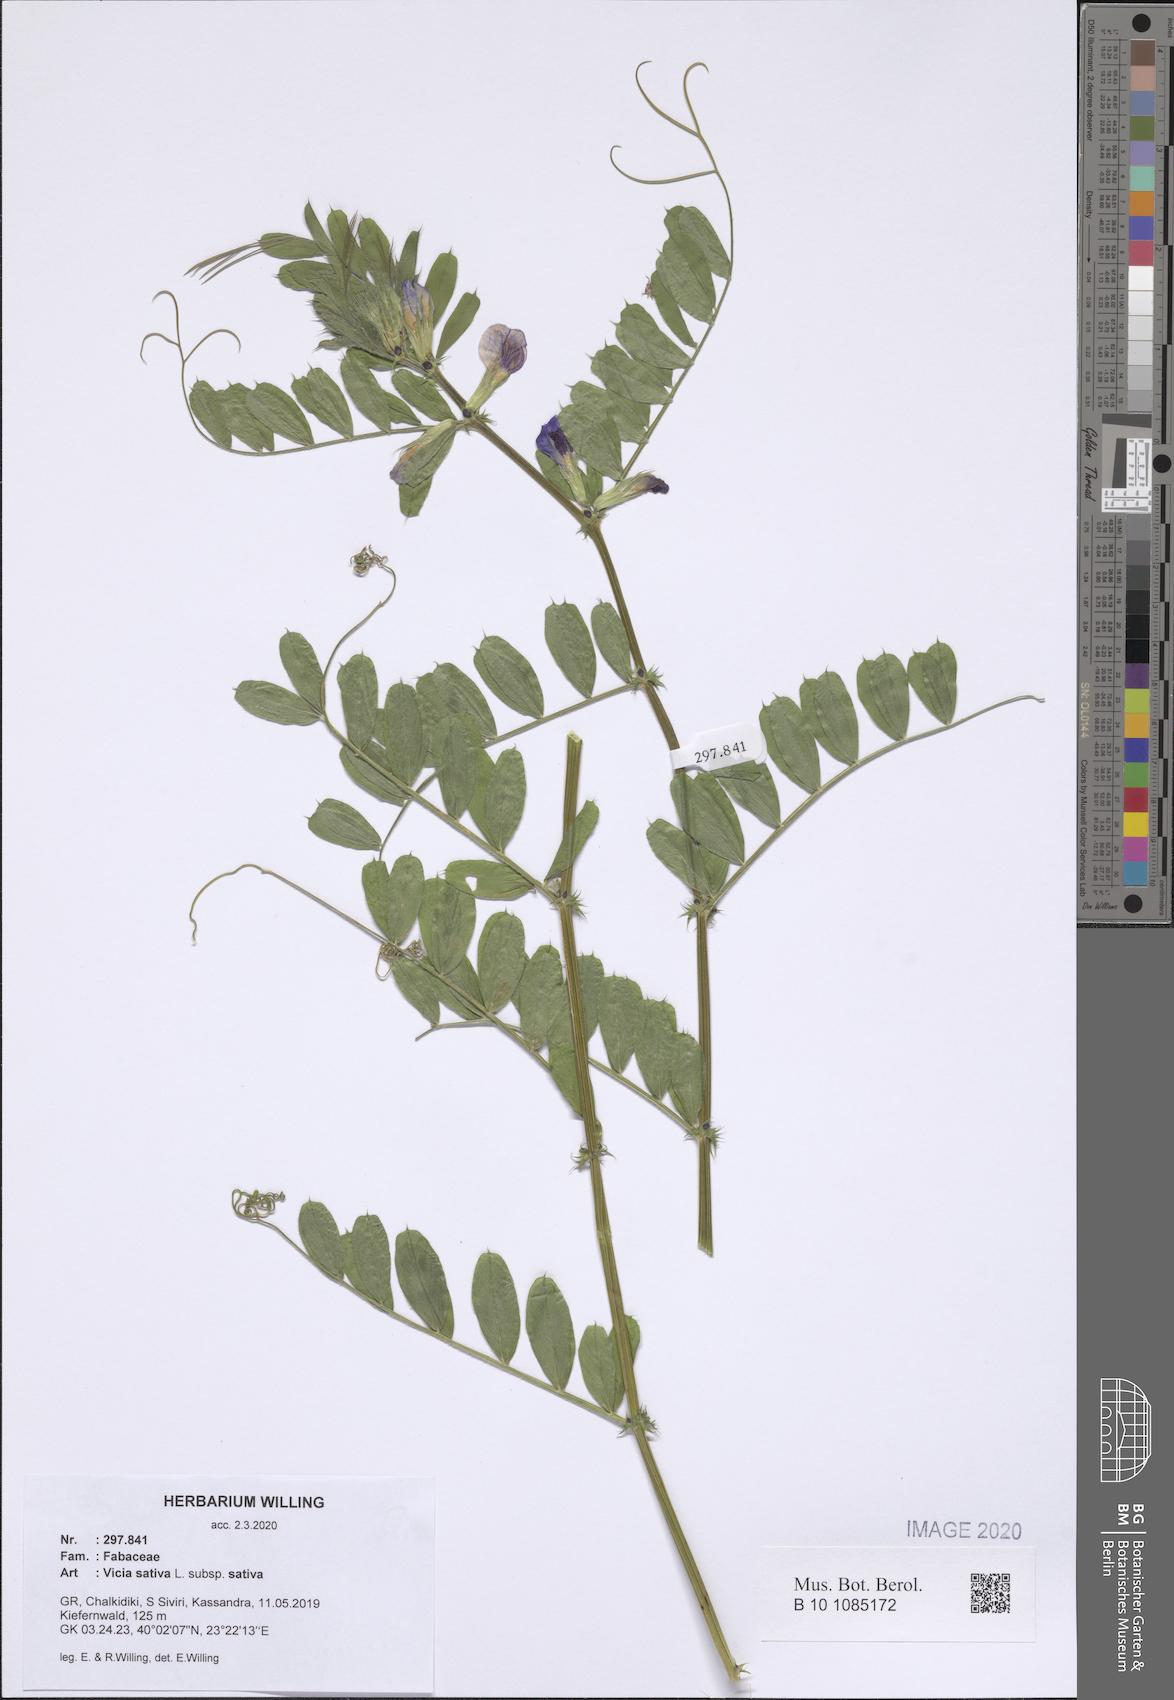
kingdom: Plantae
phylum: Tracheophyta
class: Magnoliopsida
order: Fabales
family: Fabaceae
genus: Vicia
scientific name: Vicia sativa
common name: Garden vetch
